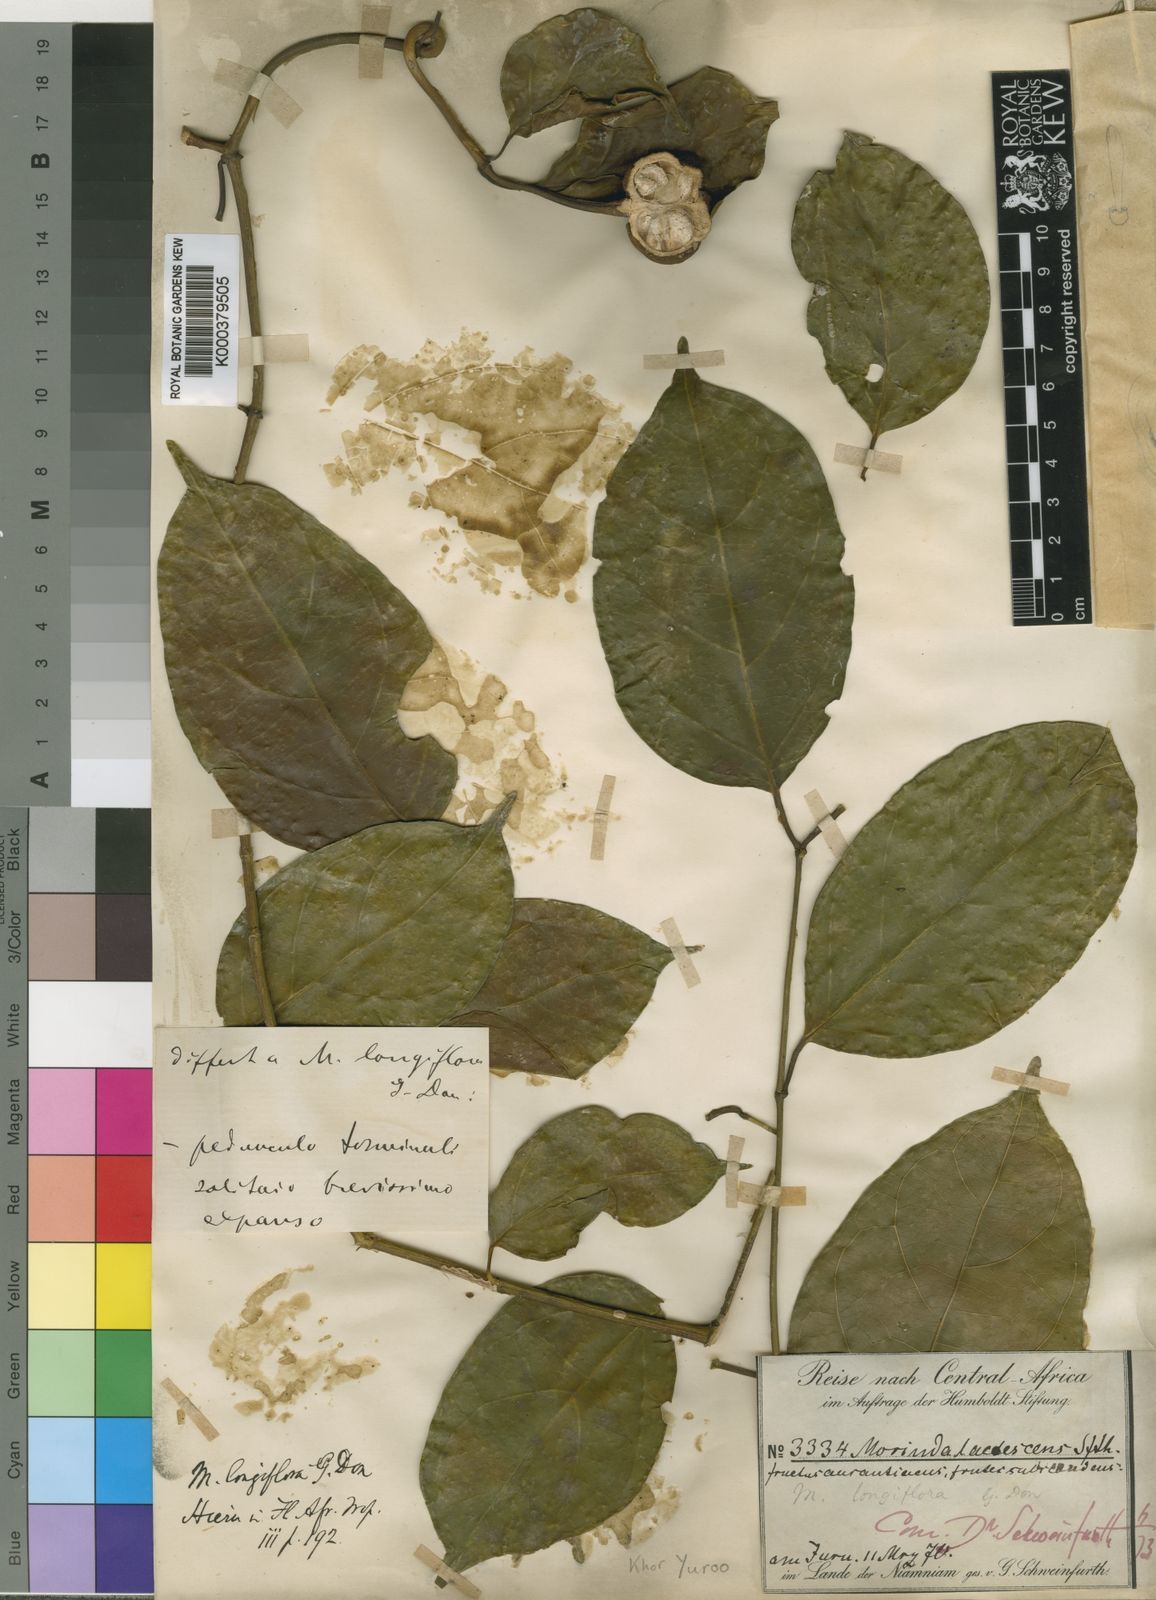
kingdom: Plantae
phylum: Tracheophyta
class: Magnoliopsida
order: Gentianales
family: Rubiaceae
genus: Morinda
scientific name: Morinda morindoides
